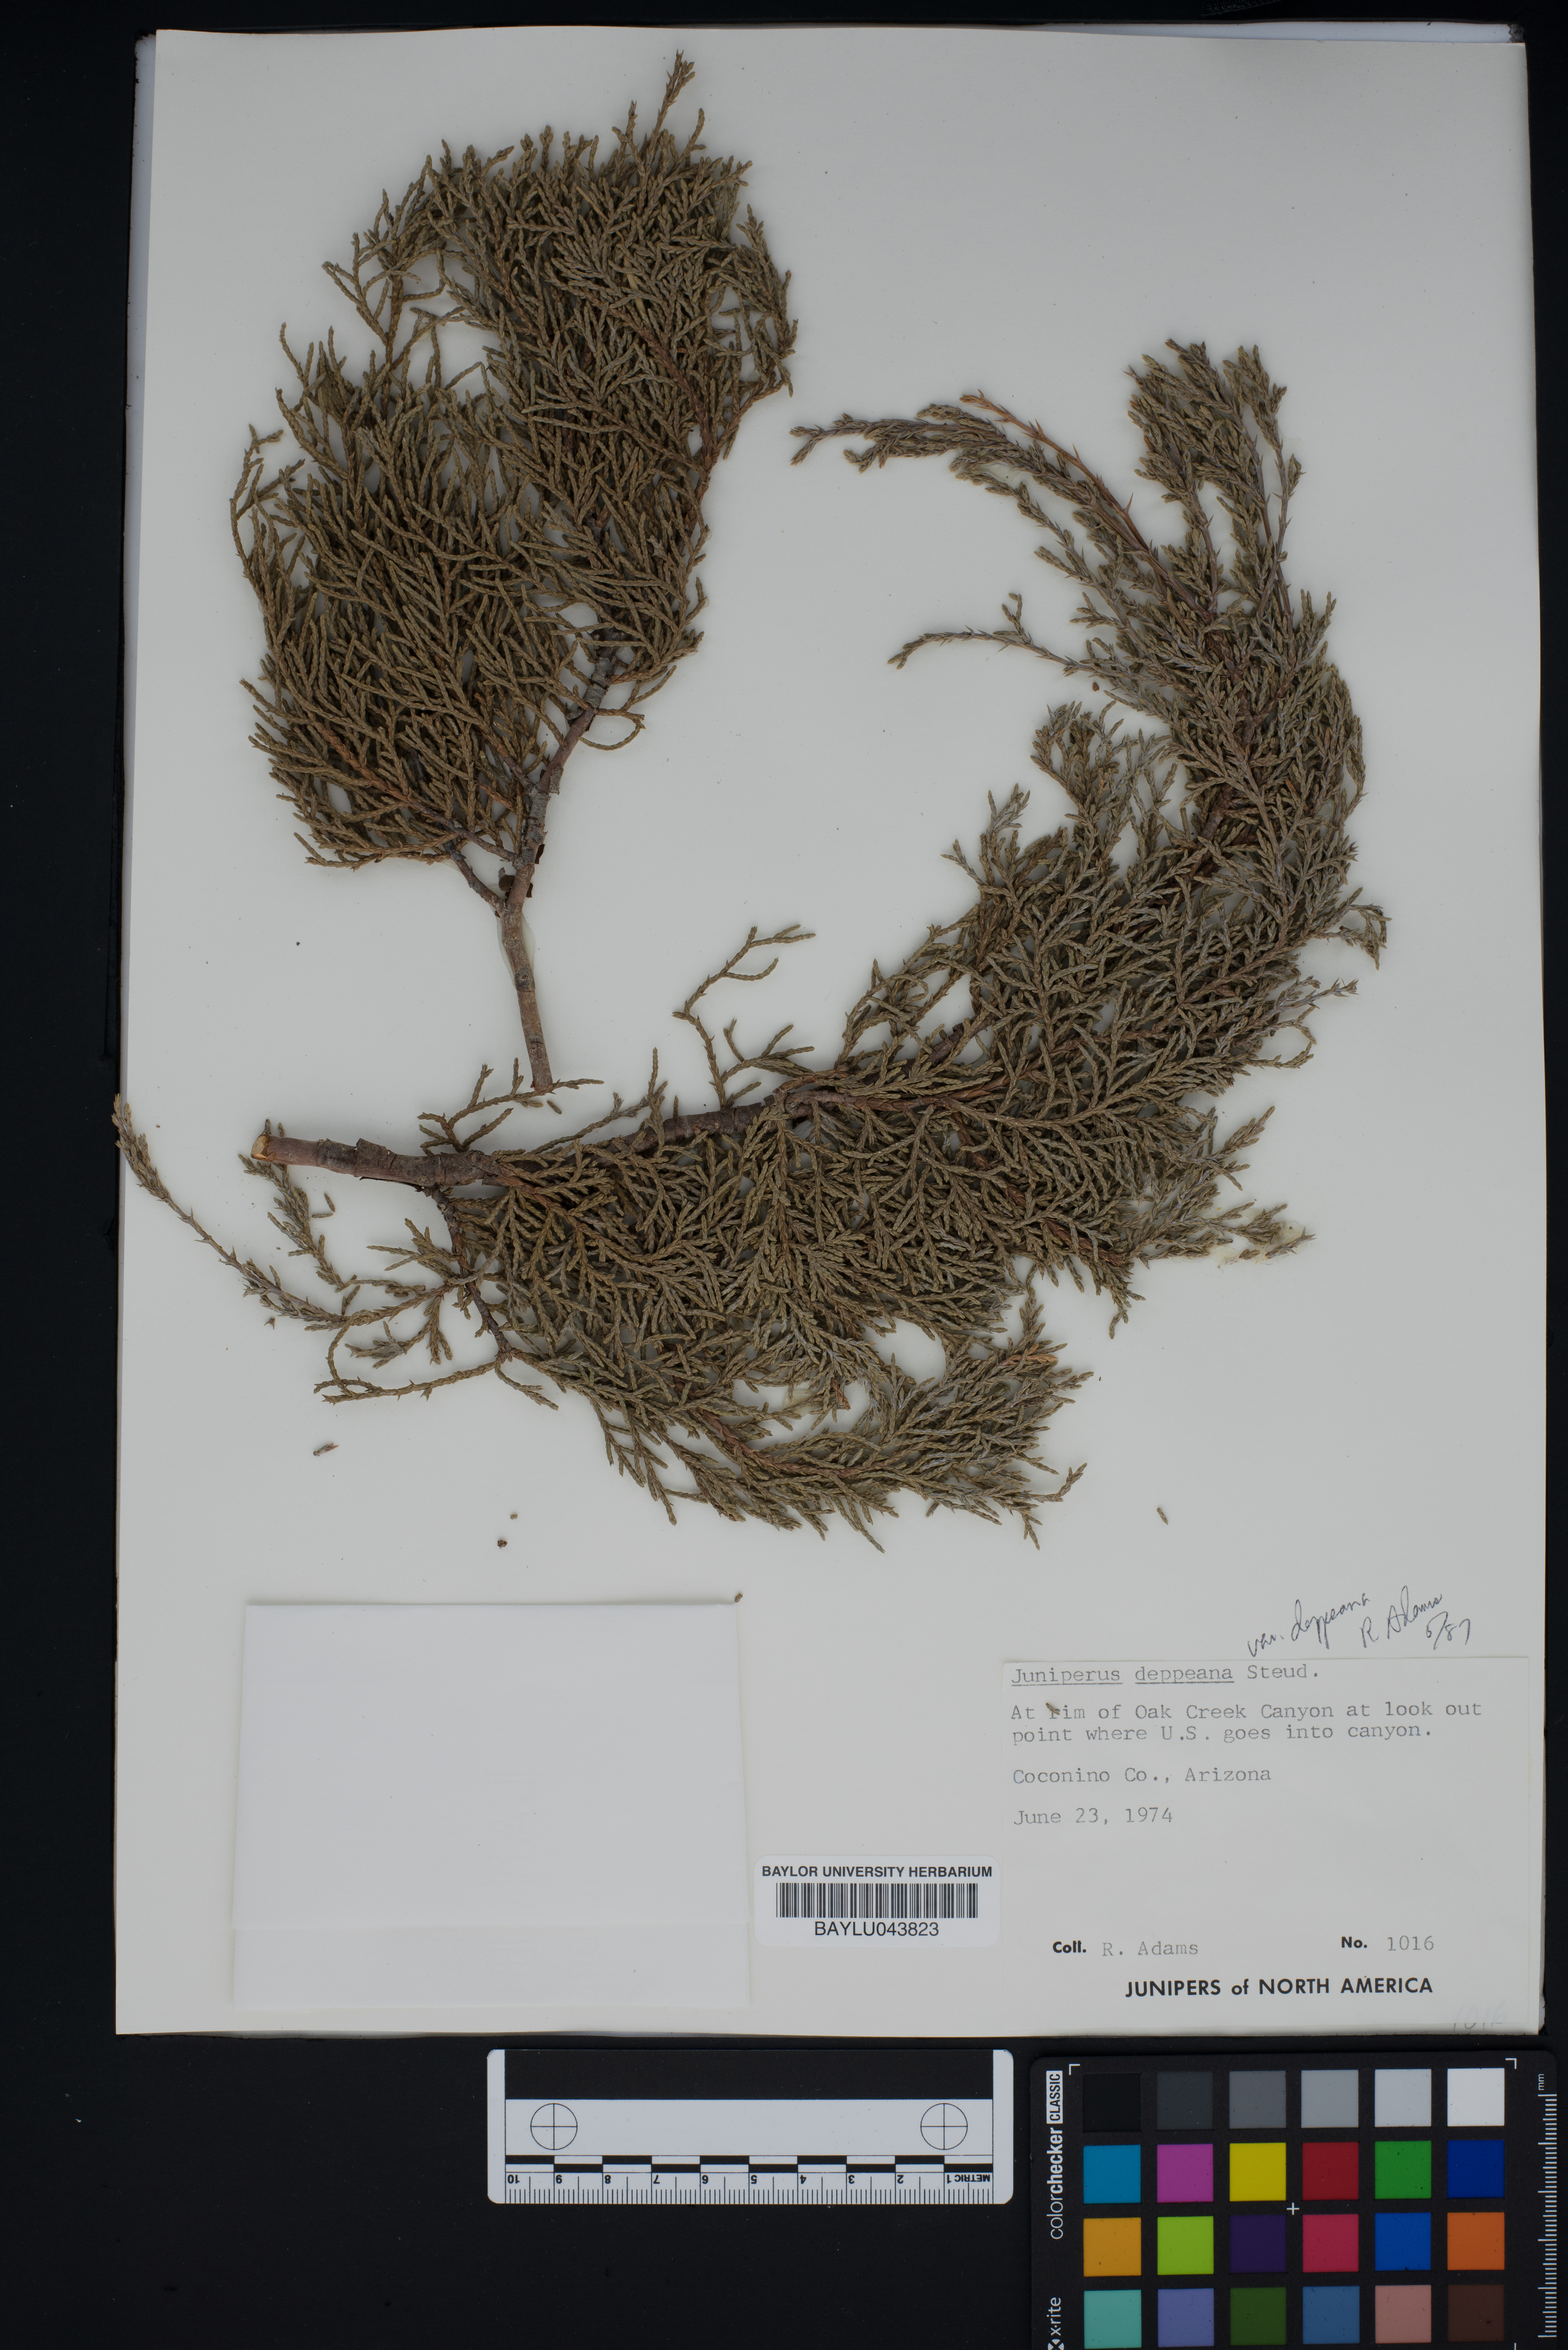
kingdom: Plantae
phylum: Tracheophyta
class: Pinopsida
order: Pinales
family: Cupressaceae
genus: Juniperus
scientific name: Juniperus deppeana
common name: Alligator juniper
